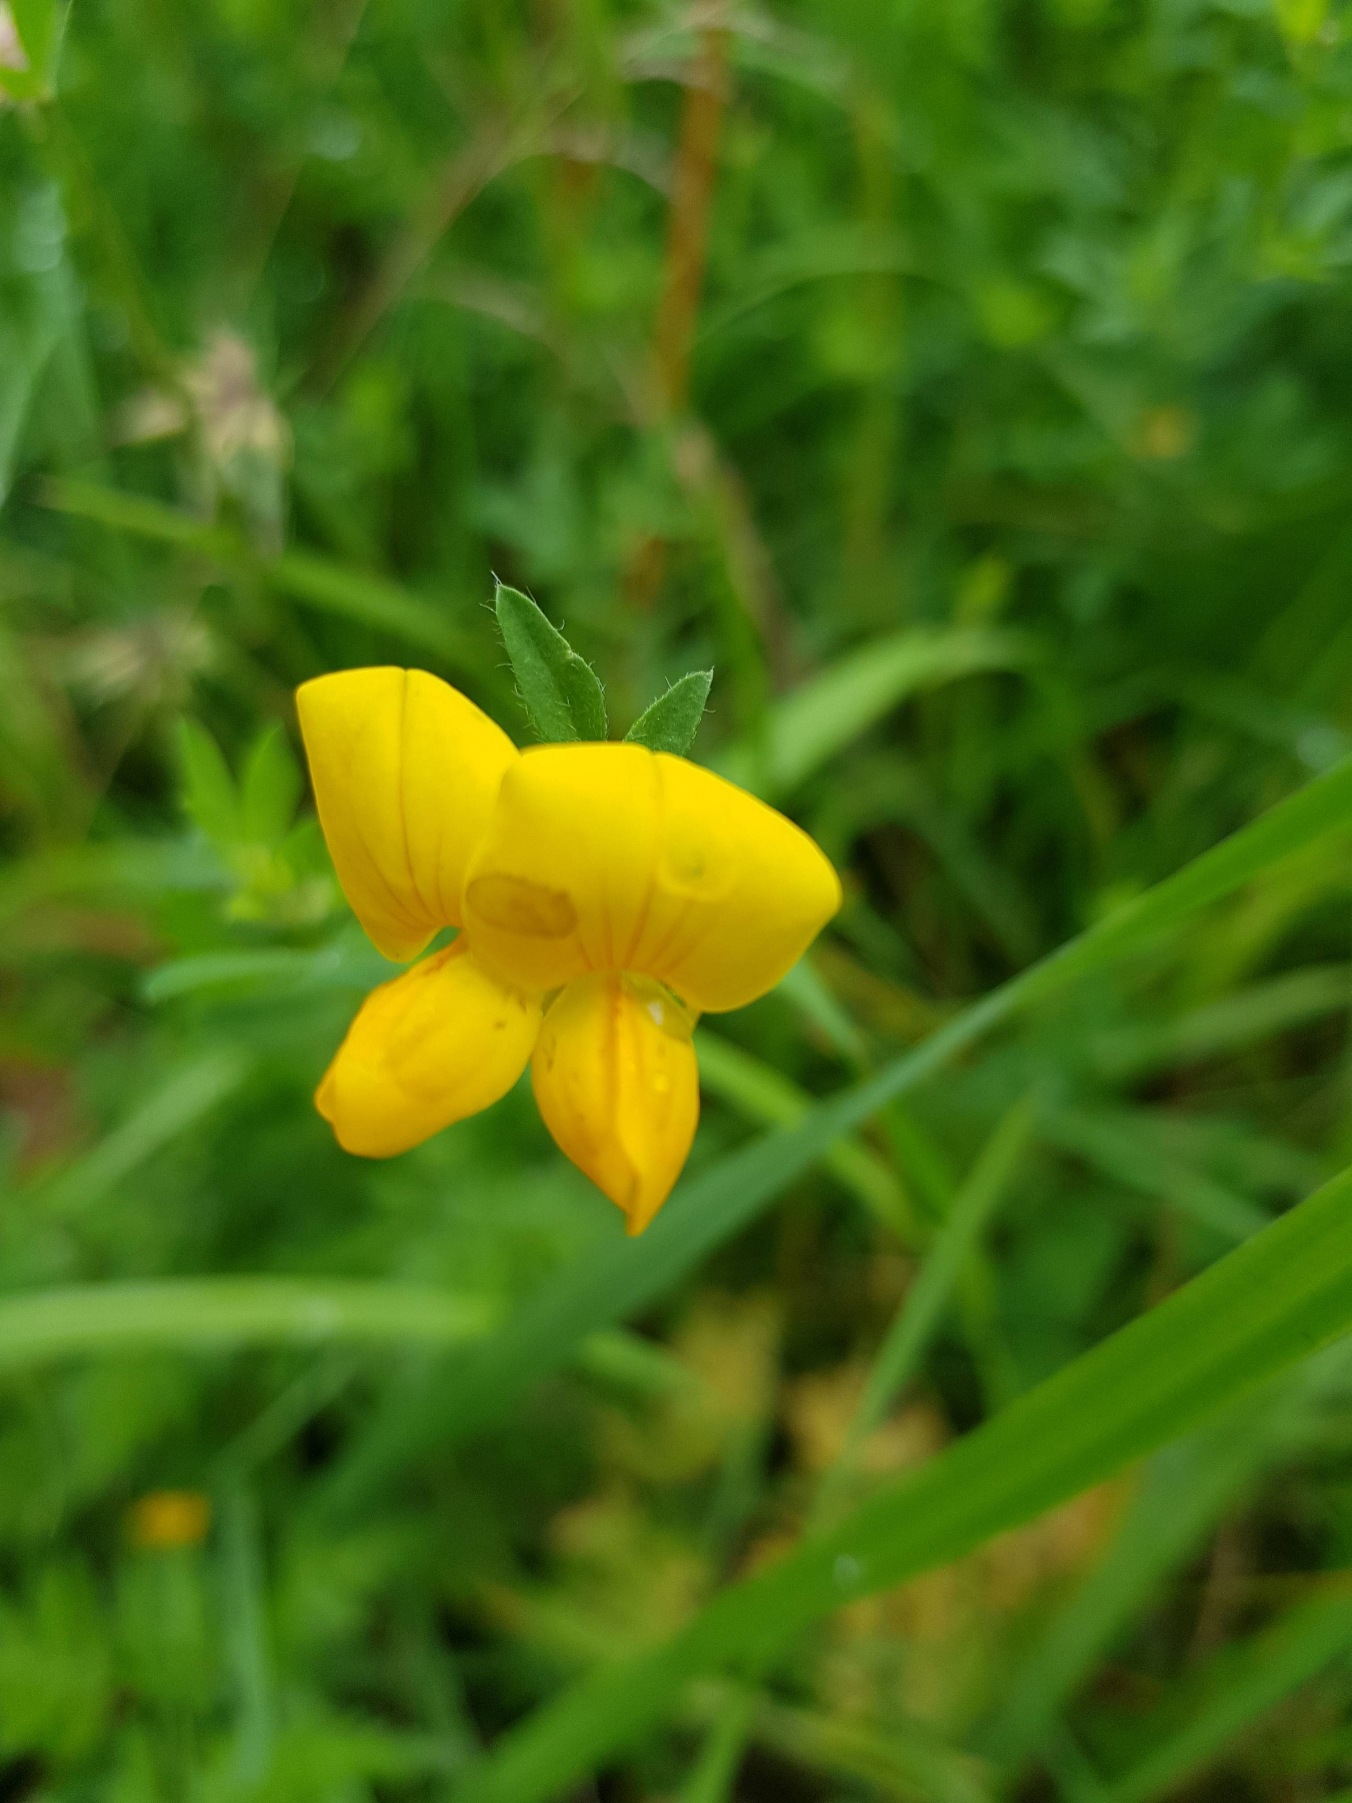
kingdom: Plantae
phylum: Tracheophyta
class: Magnoliopsida
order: Fabales
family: Fabaceae
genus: Lotus
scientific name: Lotus corniculatus
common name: Almindelig kællingetand
